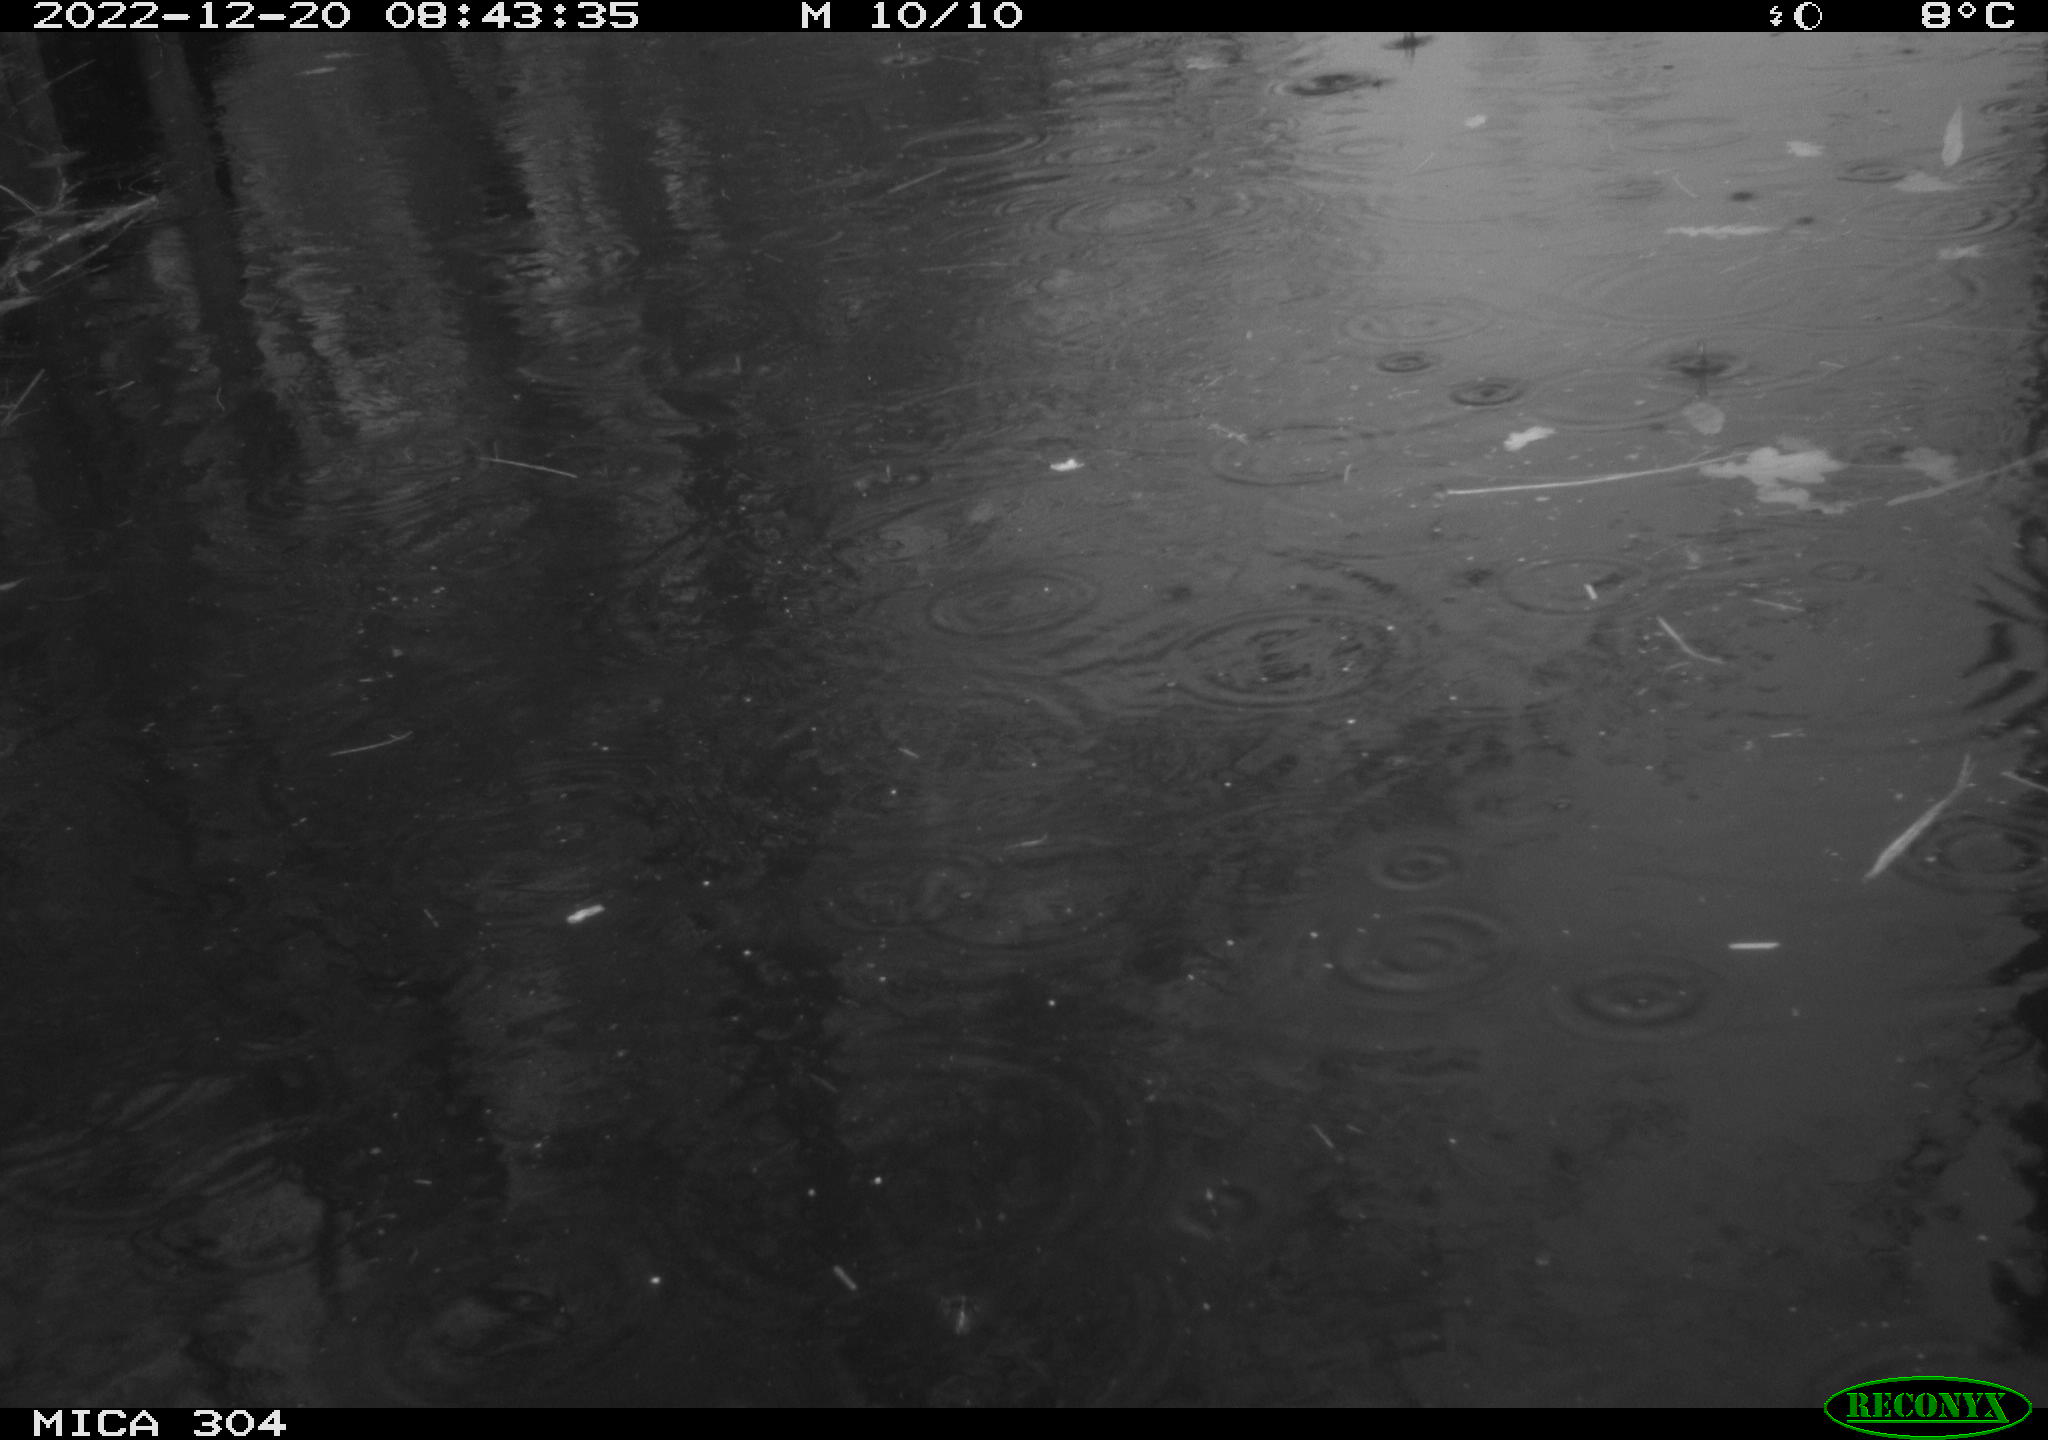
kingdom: Animalia
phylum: Chordata
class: Aves
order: Gruiformes
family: Rallidae
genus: Gallinula
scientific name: Gallinula chloropus
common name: Common moorhen
